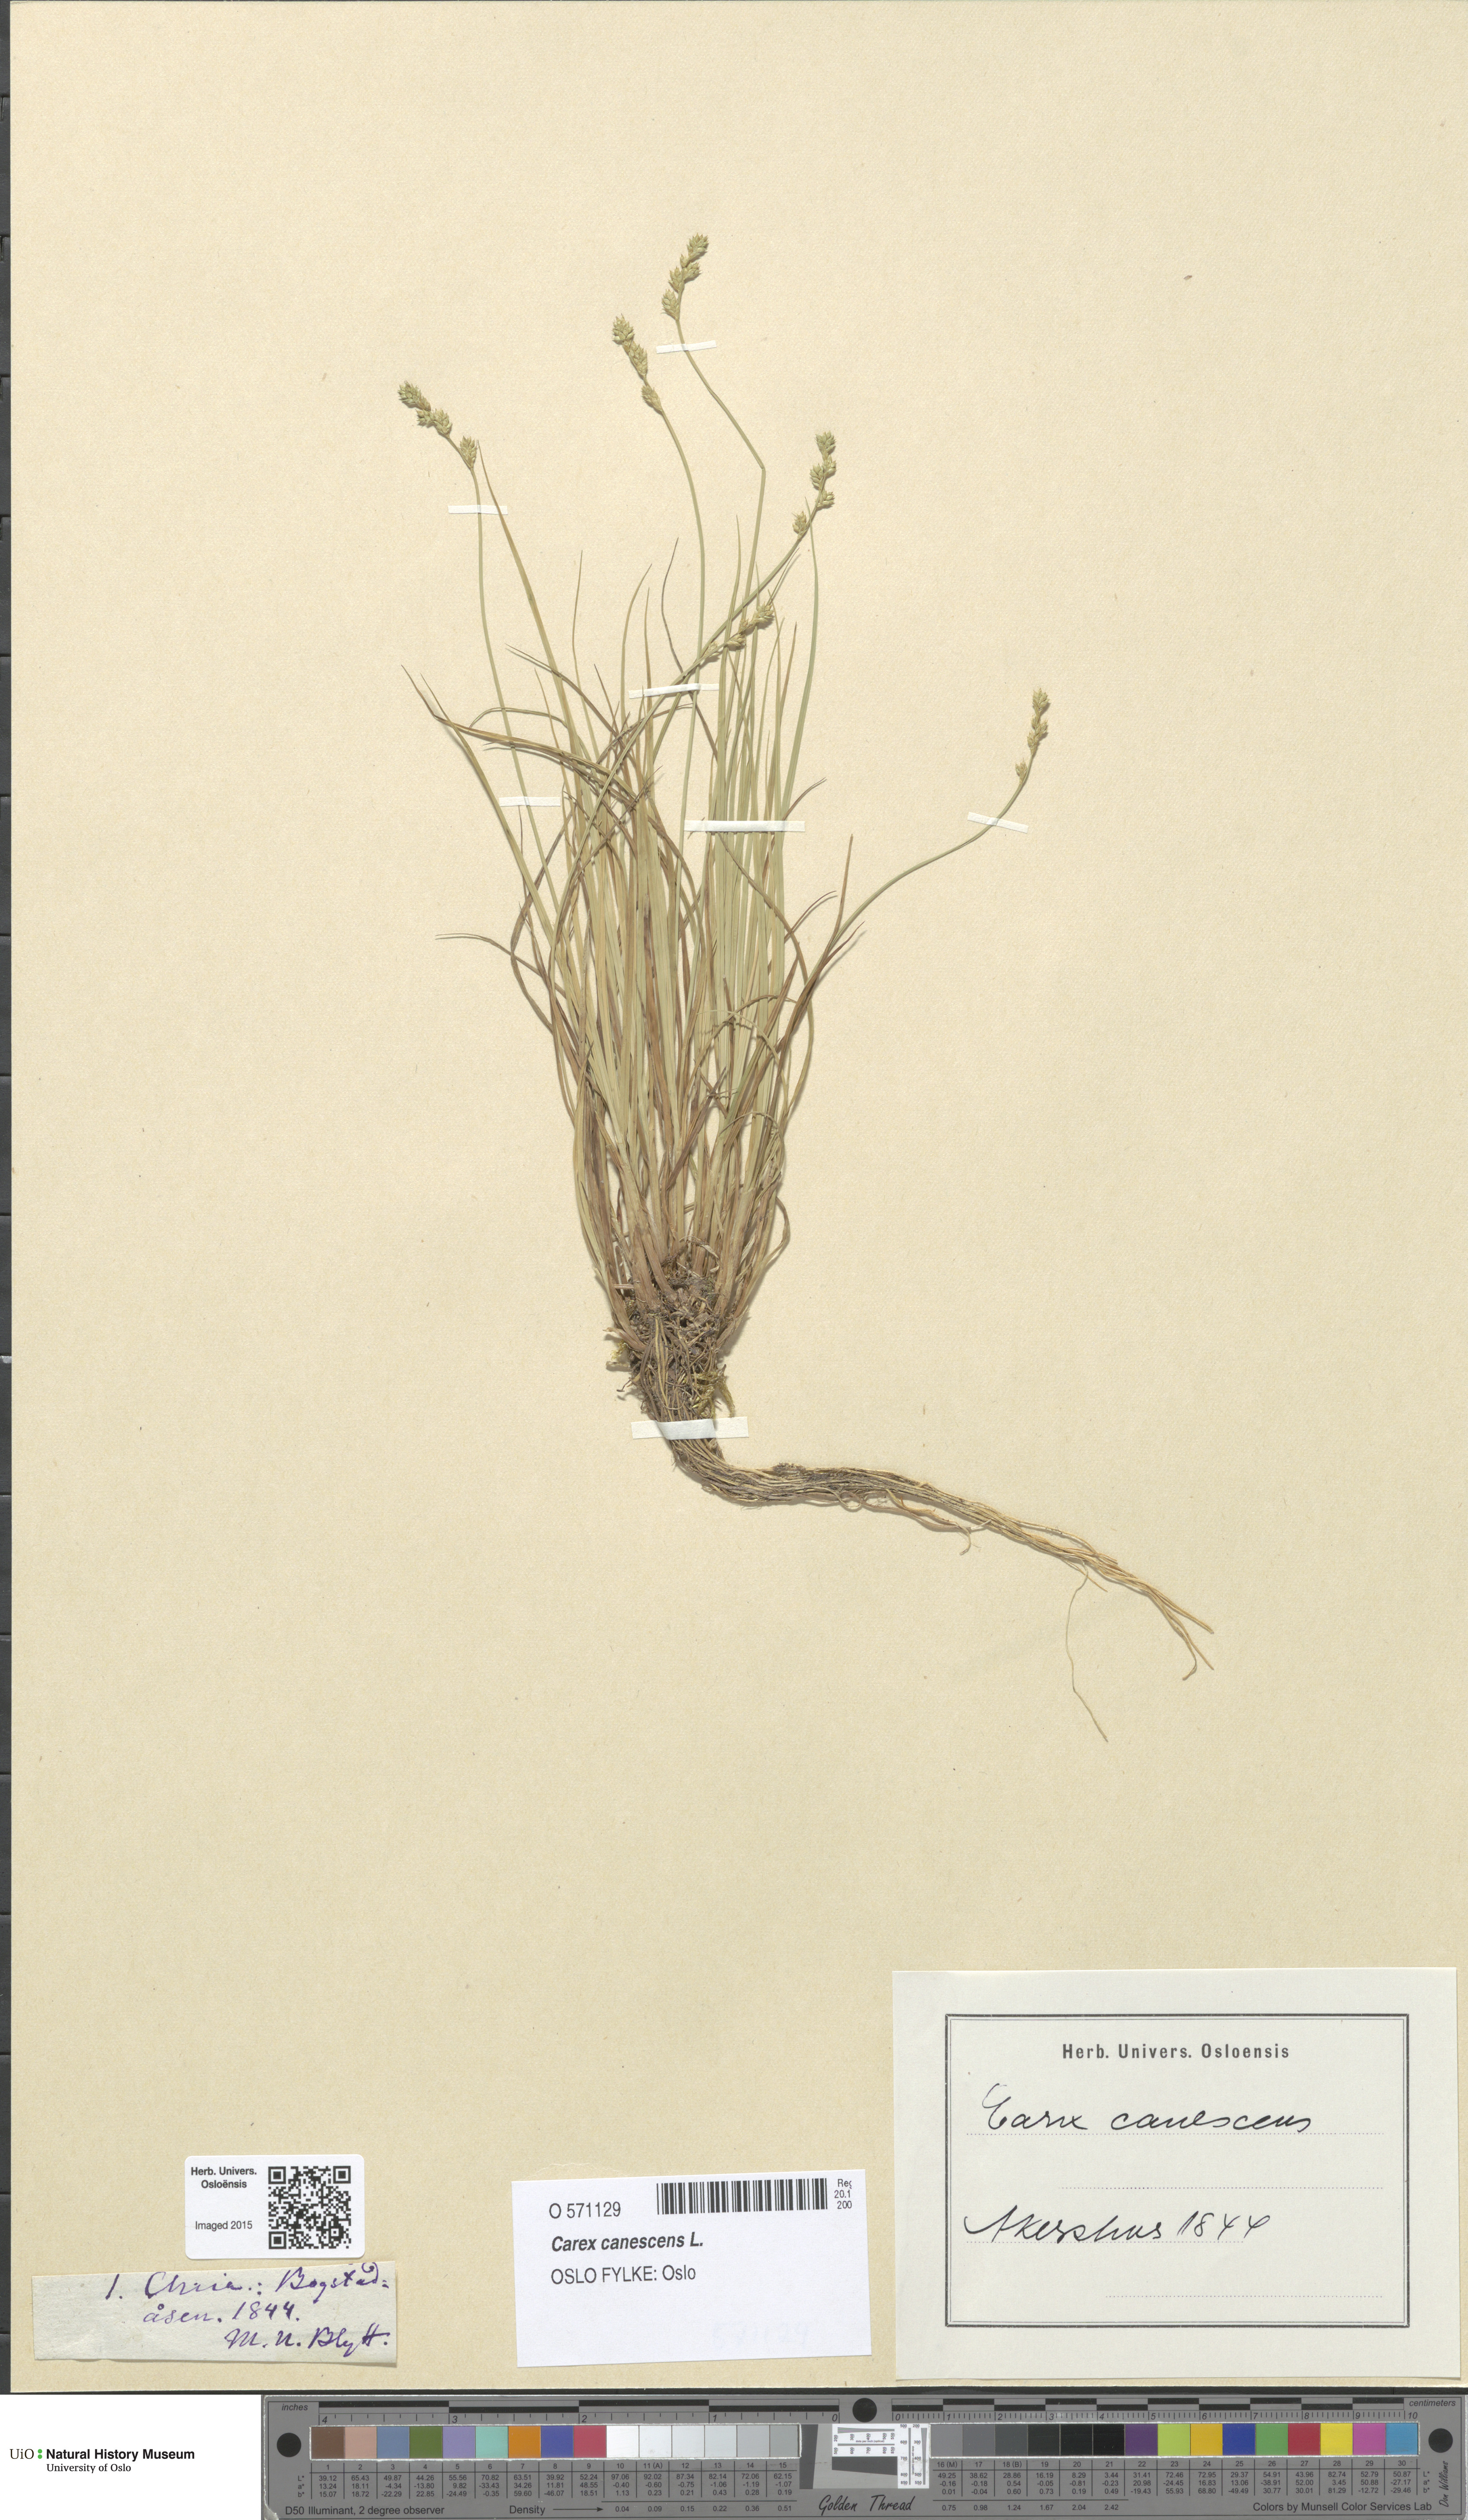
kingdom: Plantae
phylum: Tracheophyta
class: Liliopsida
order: Poales
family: Cyperaceae
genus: Carex
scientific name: Carex canescens
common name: White sedge
